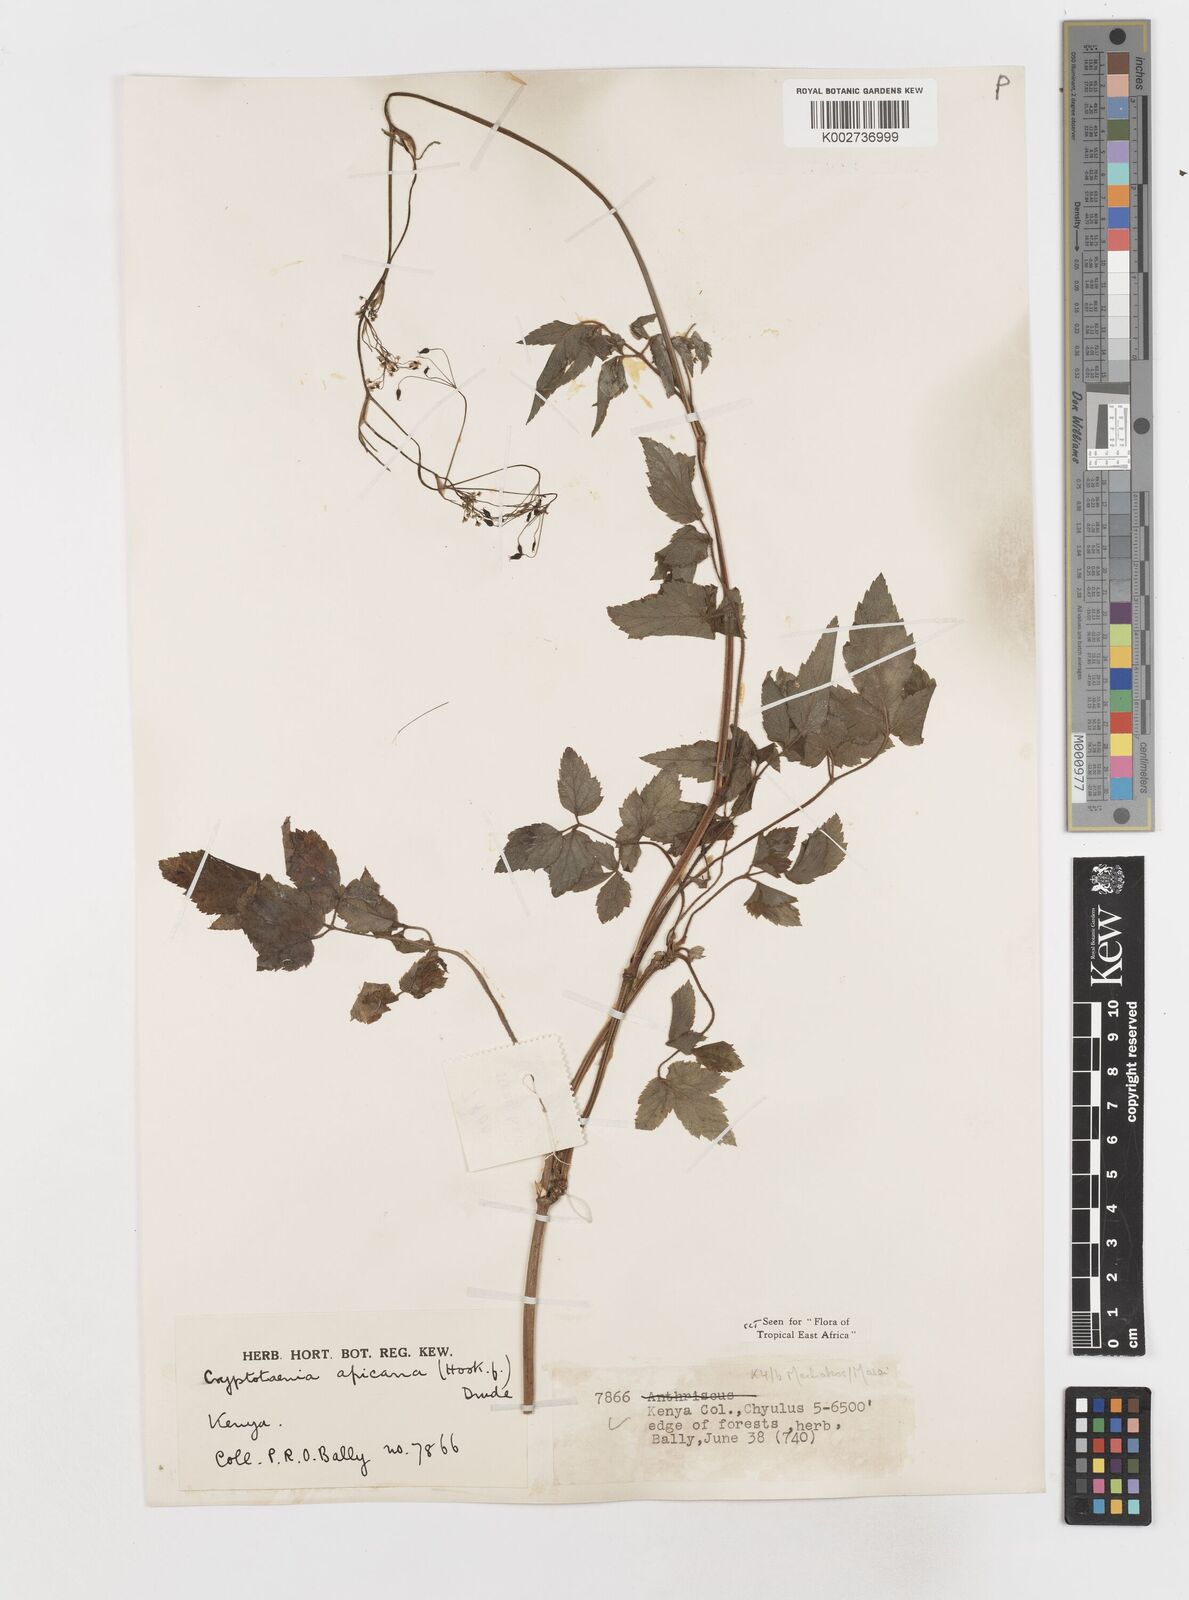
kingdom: Plantae
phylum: Tracheophyta
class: Magnoliopsida
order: Apiales
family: Apiaceae
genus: Cryptotaenia
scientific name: Cryptotaenia africana
